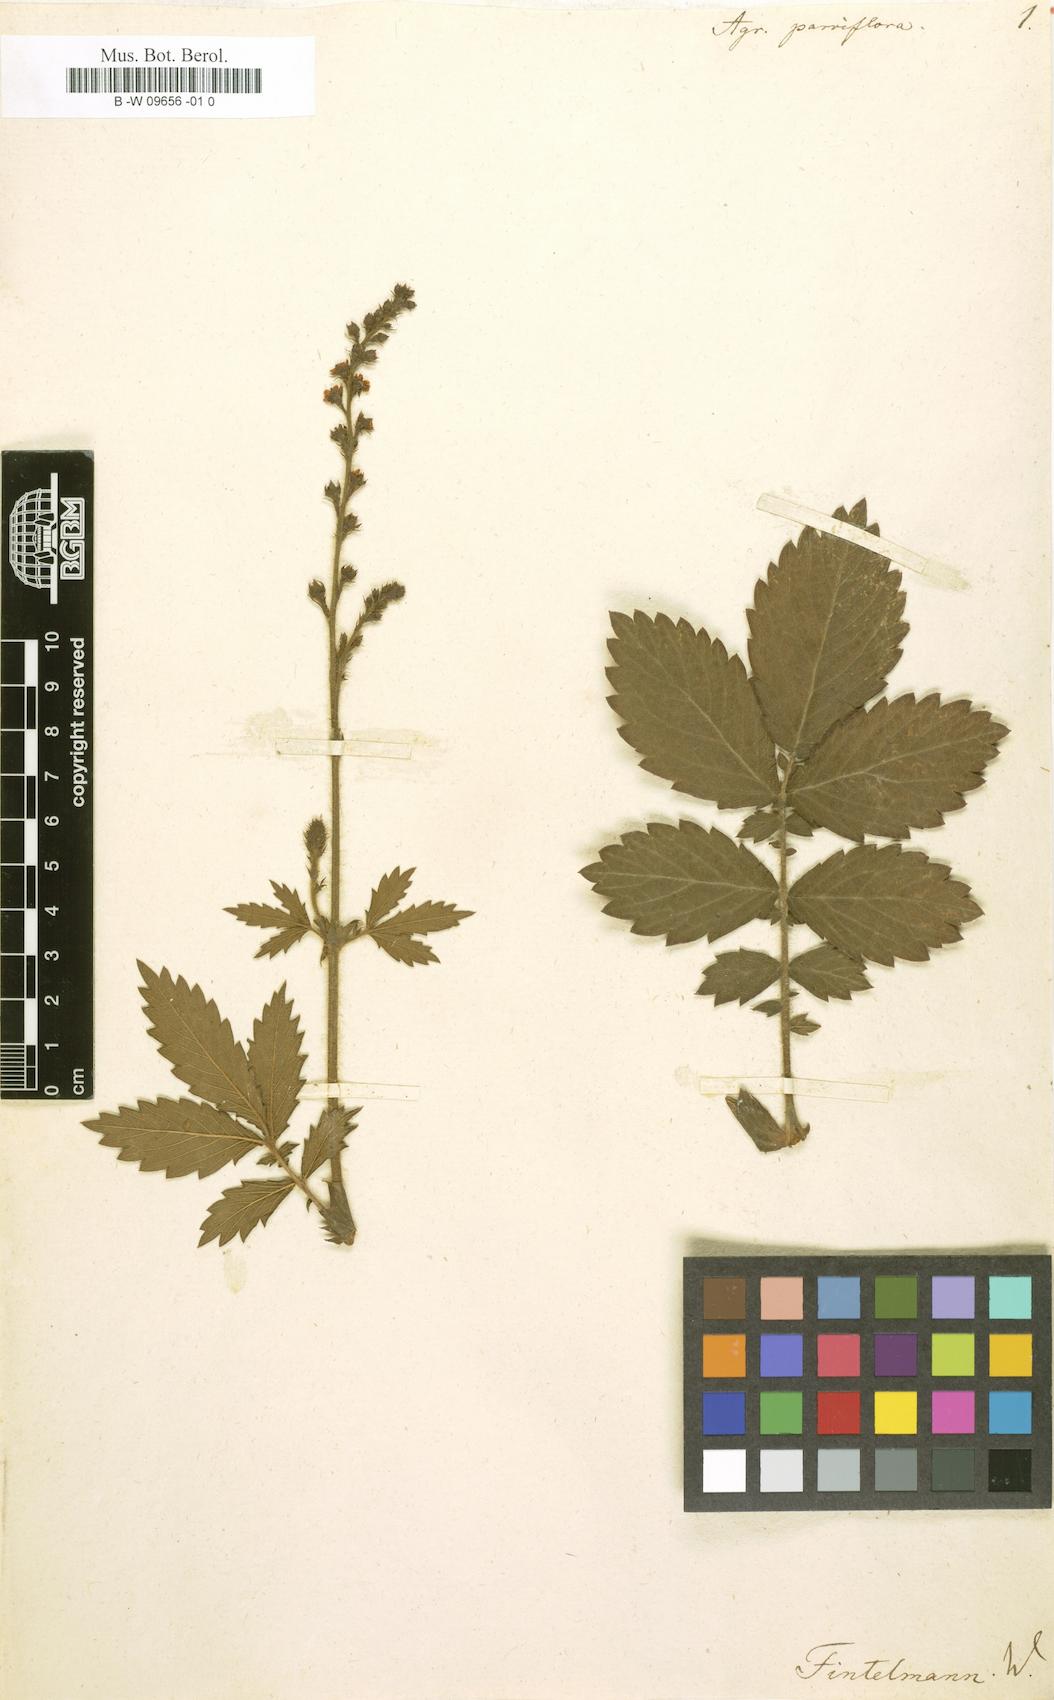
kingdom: Plantae
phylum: Tracheophyta
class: Magnoliopsida
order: Rosales
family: Rosaceae
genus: Agrimonia
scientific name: Agrimonia parviflora
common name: Harvest-lice
